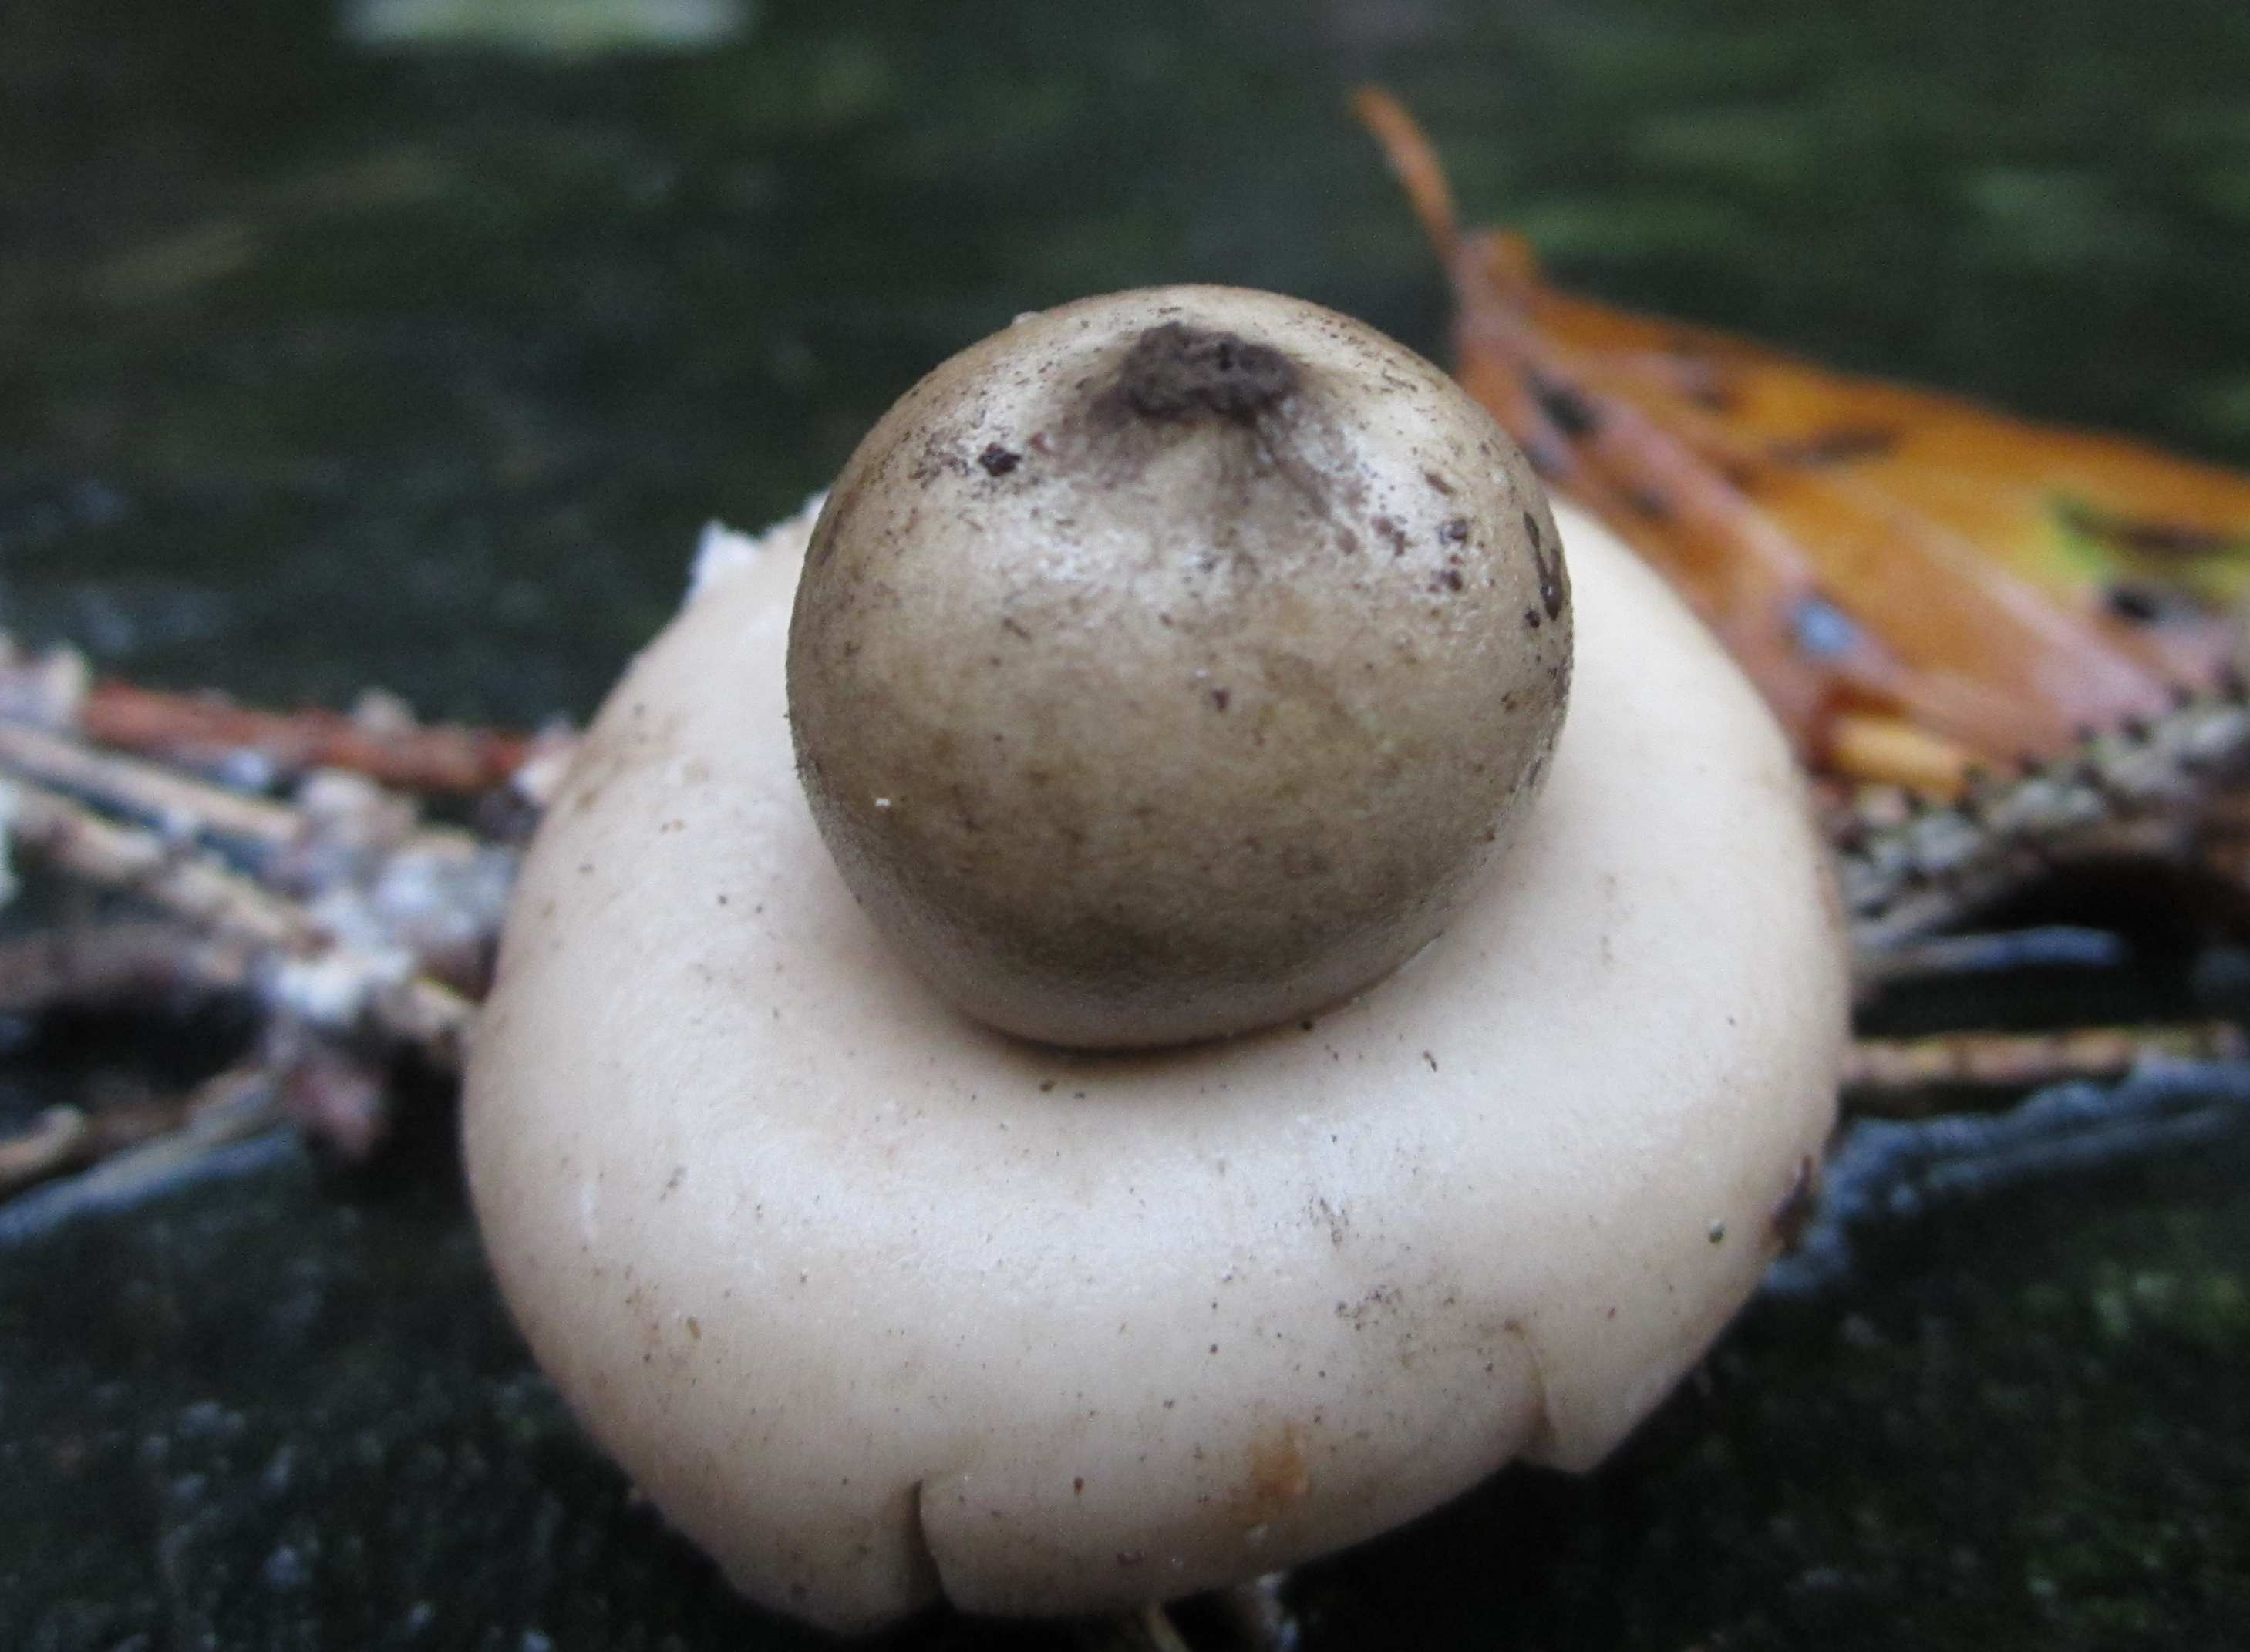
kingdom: Fungi
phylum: Basidiomycota
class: Agaricomycetes
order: Geastrales
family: Geastraceae
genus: Geastrum
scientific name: Geastrum fimbriatum
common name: frynset stjernebold
